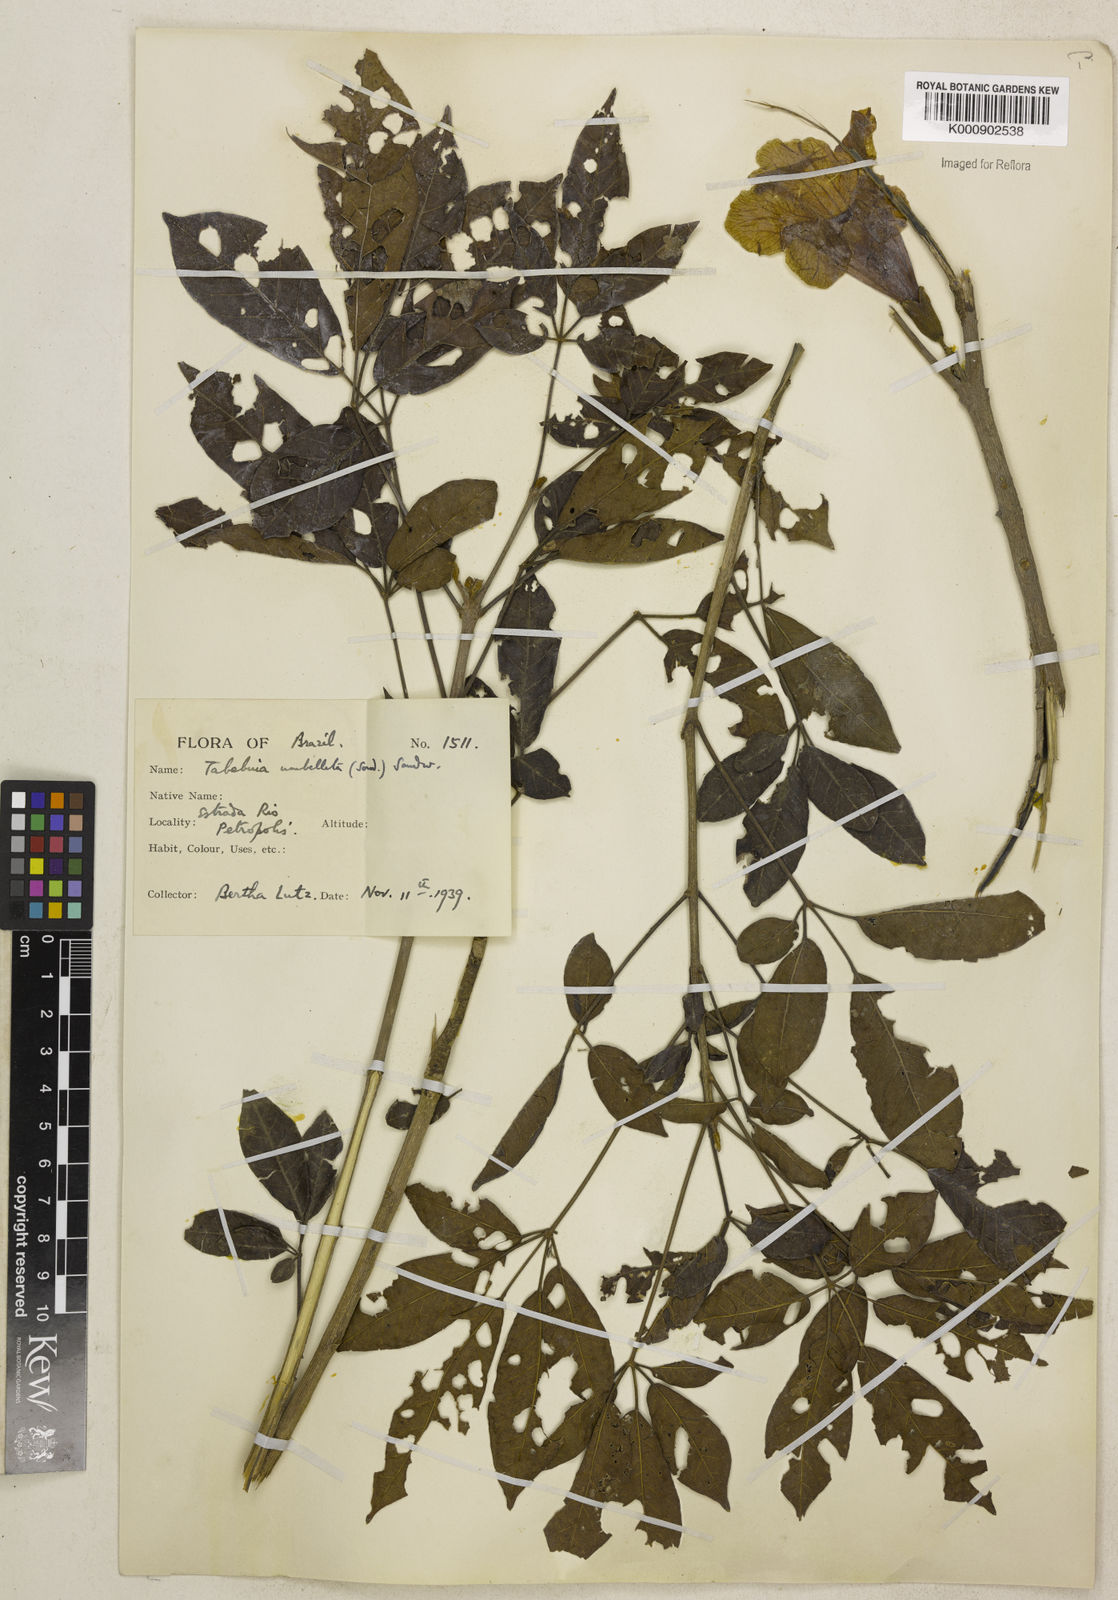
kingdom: Plantae
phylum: Tracheophyta
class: Magnoliopsida
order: Lamiales
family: Bignoniaceae
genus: Handroanthus
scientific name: Handroanthus umbellatus
